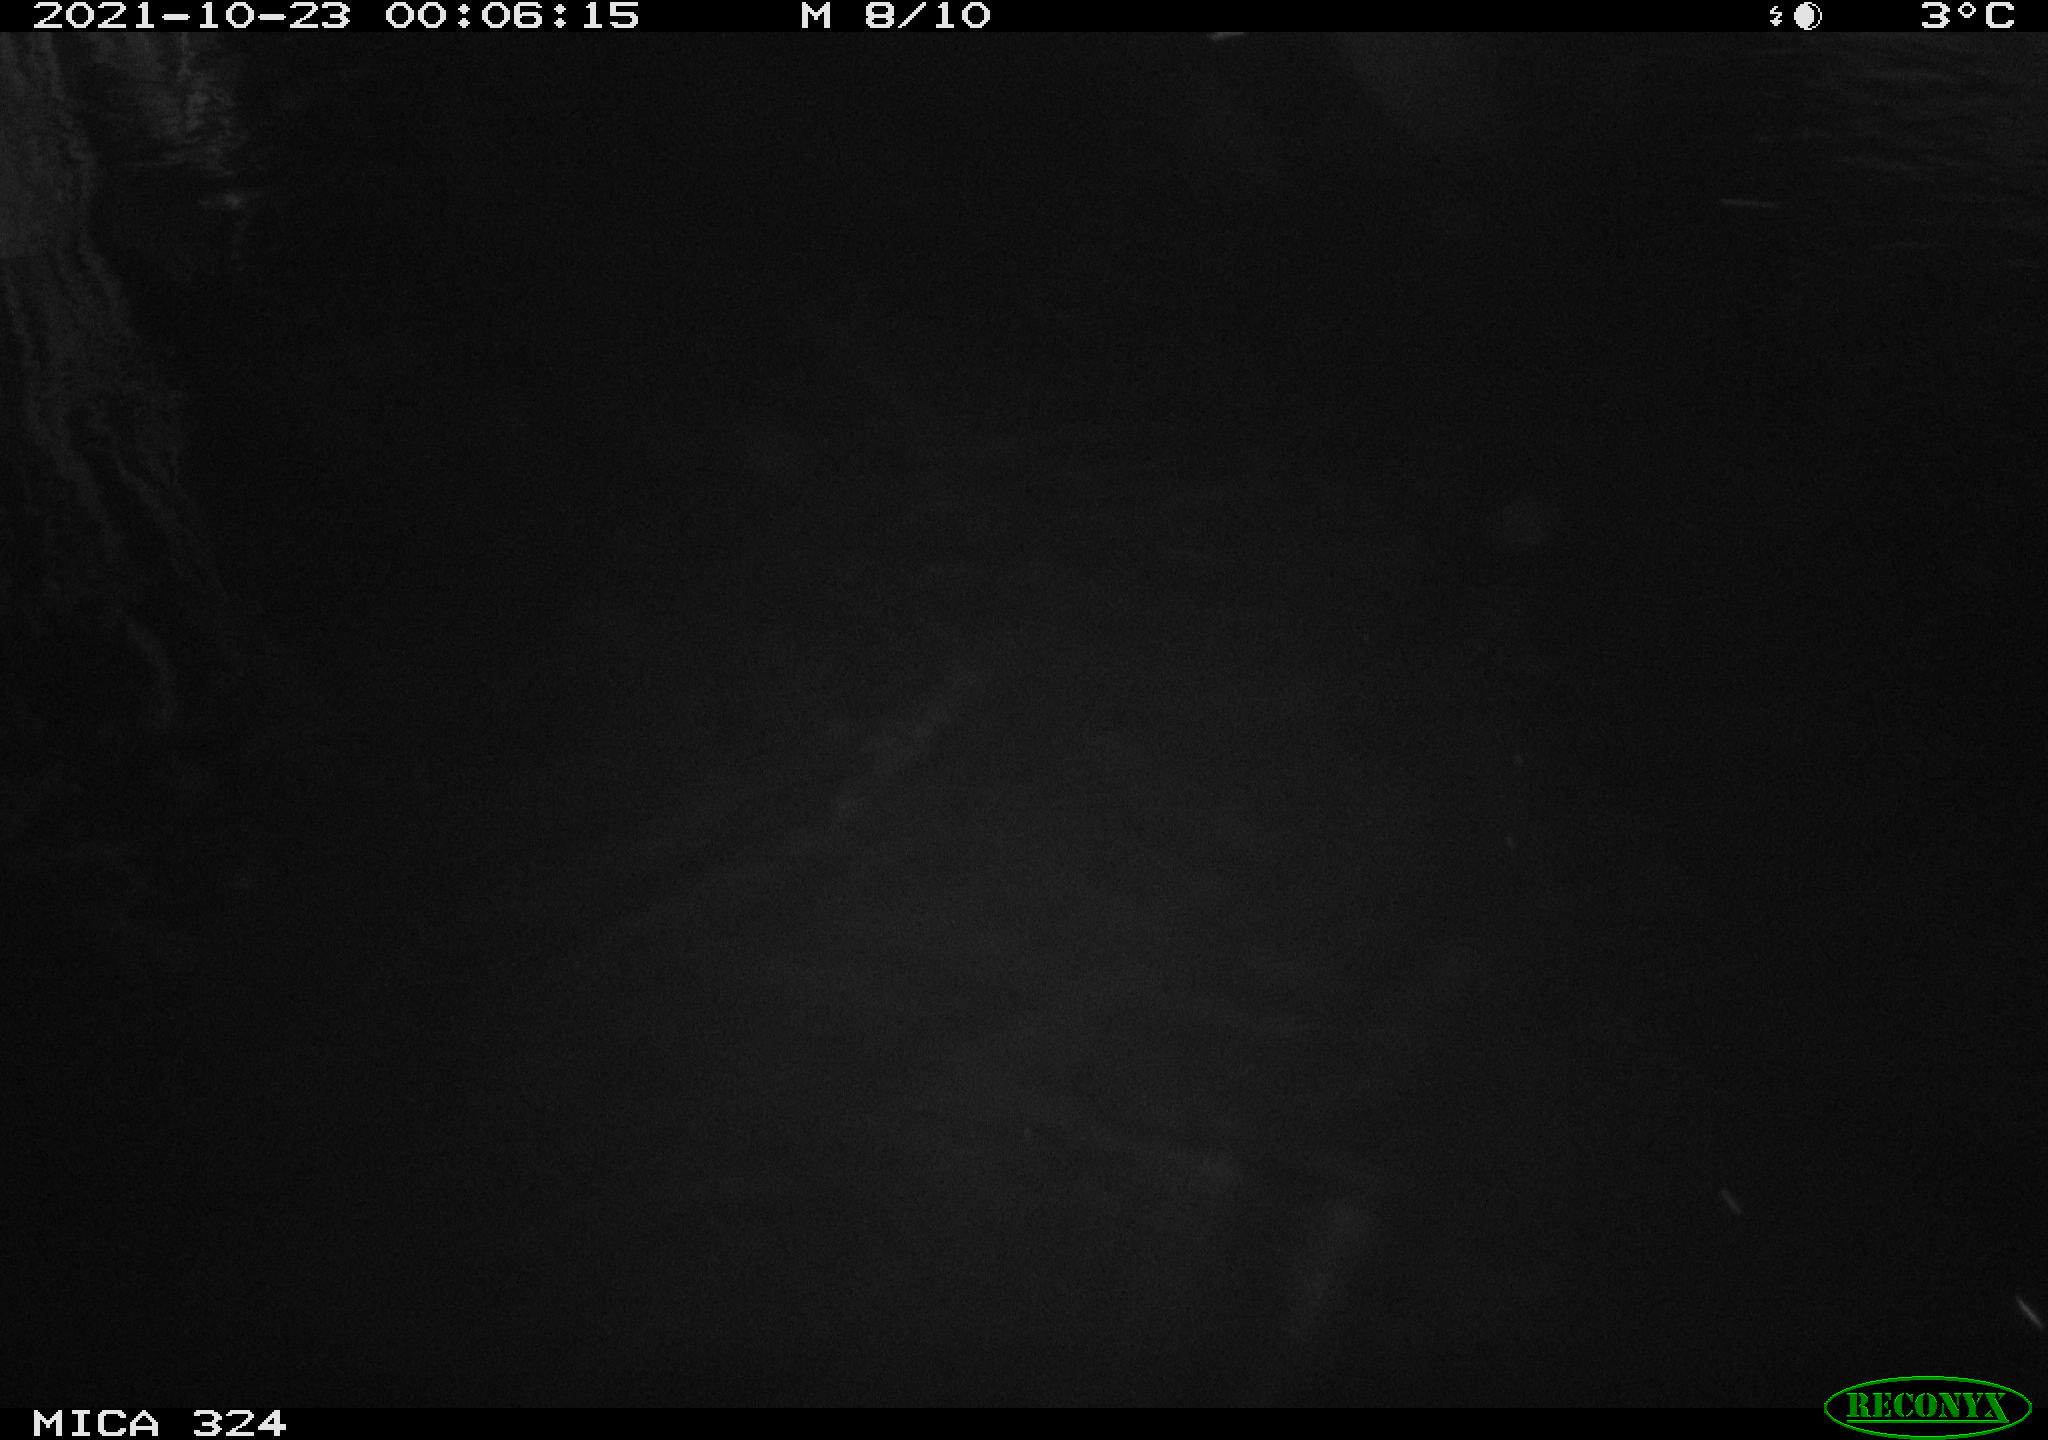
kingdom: Animalia
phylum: Chordata
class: Mammalia
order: Rodentia
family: Cricetidae
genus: Ondatra
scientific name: Ondatra zibethicus
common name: Muskrat
